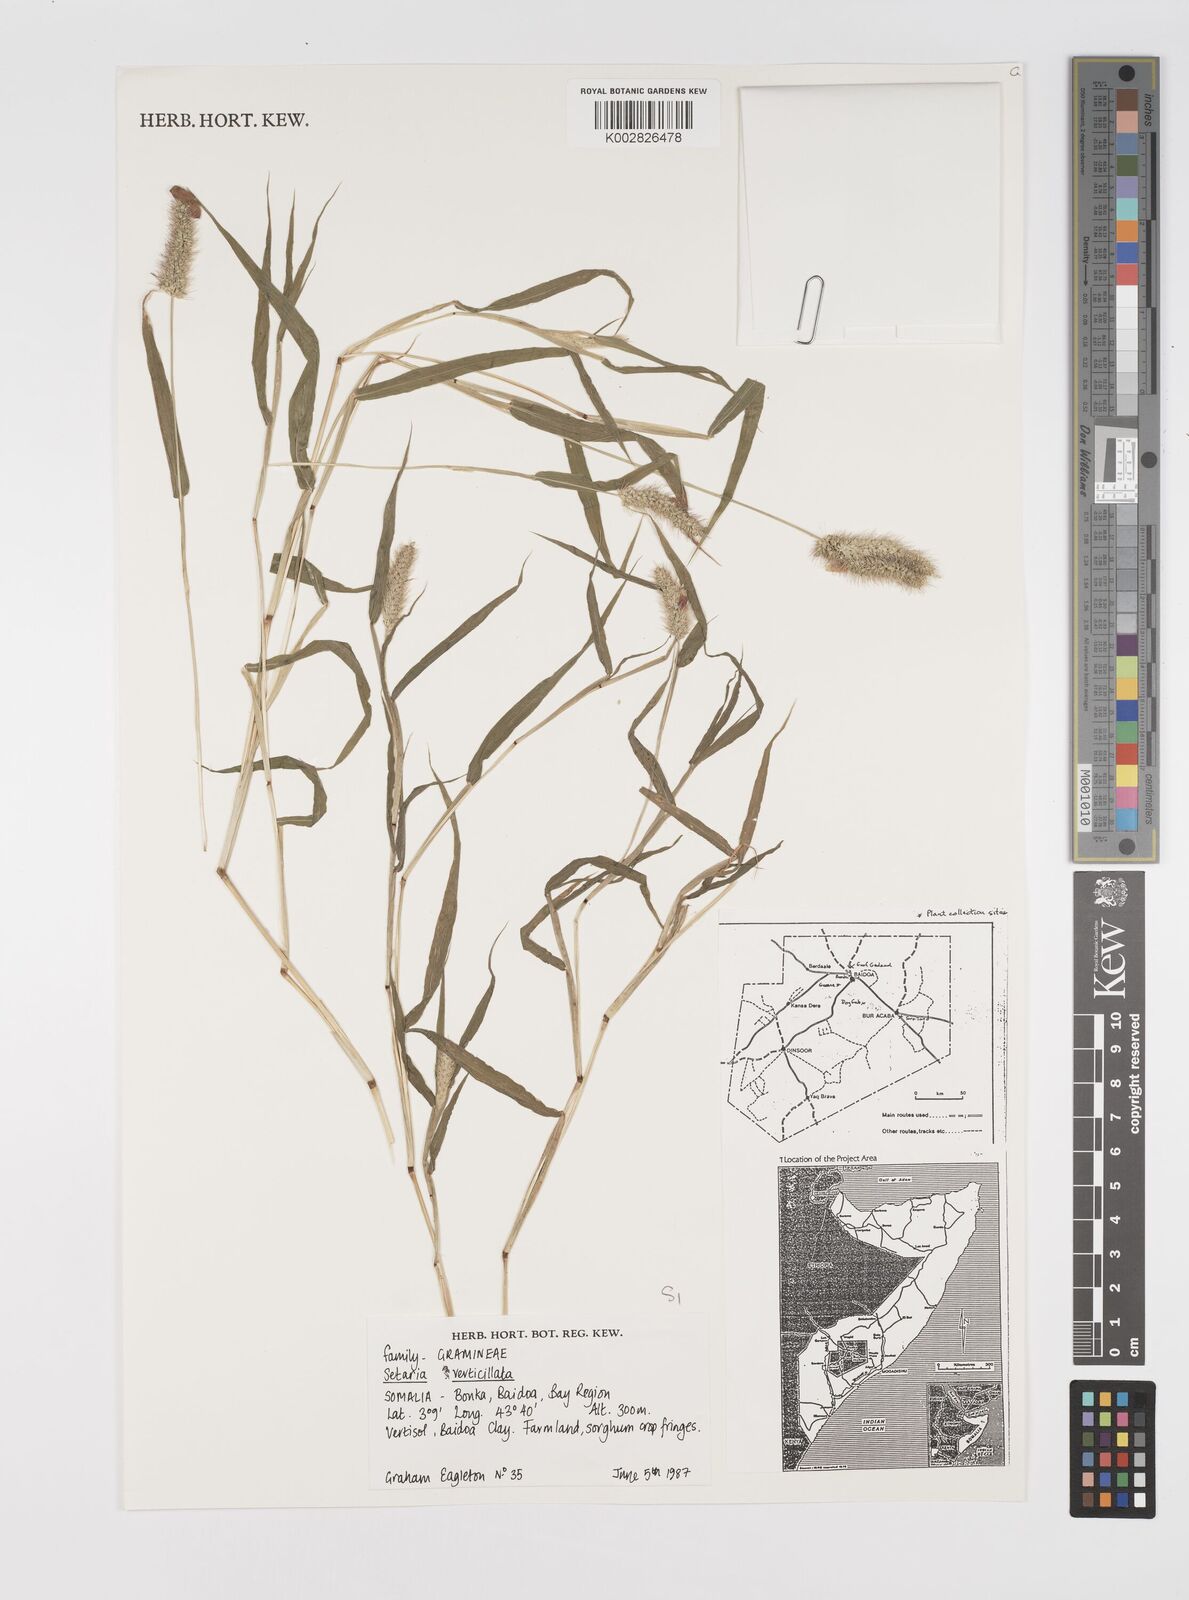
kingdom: Plantae
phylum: Tracheophyta
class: Liliopsida
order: Poales
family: Poaceae
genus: Setaria
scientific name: Setaria verticillata
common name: Hooked bristlegrass
